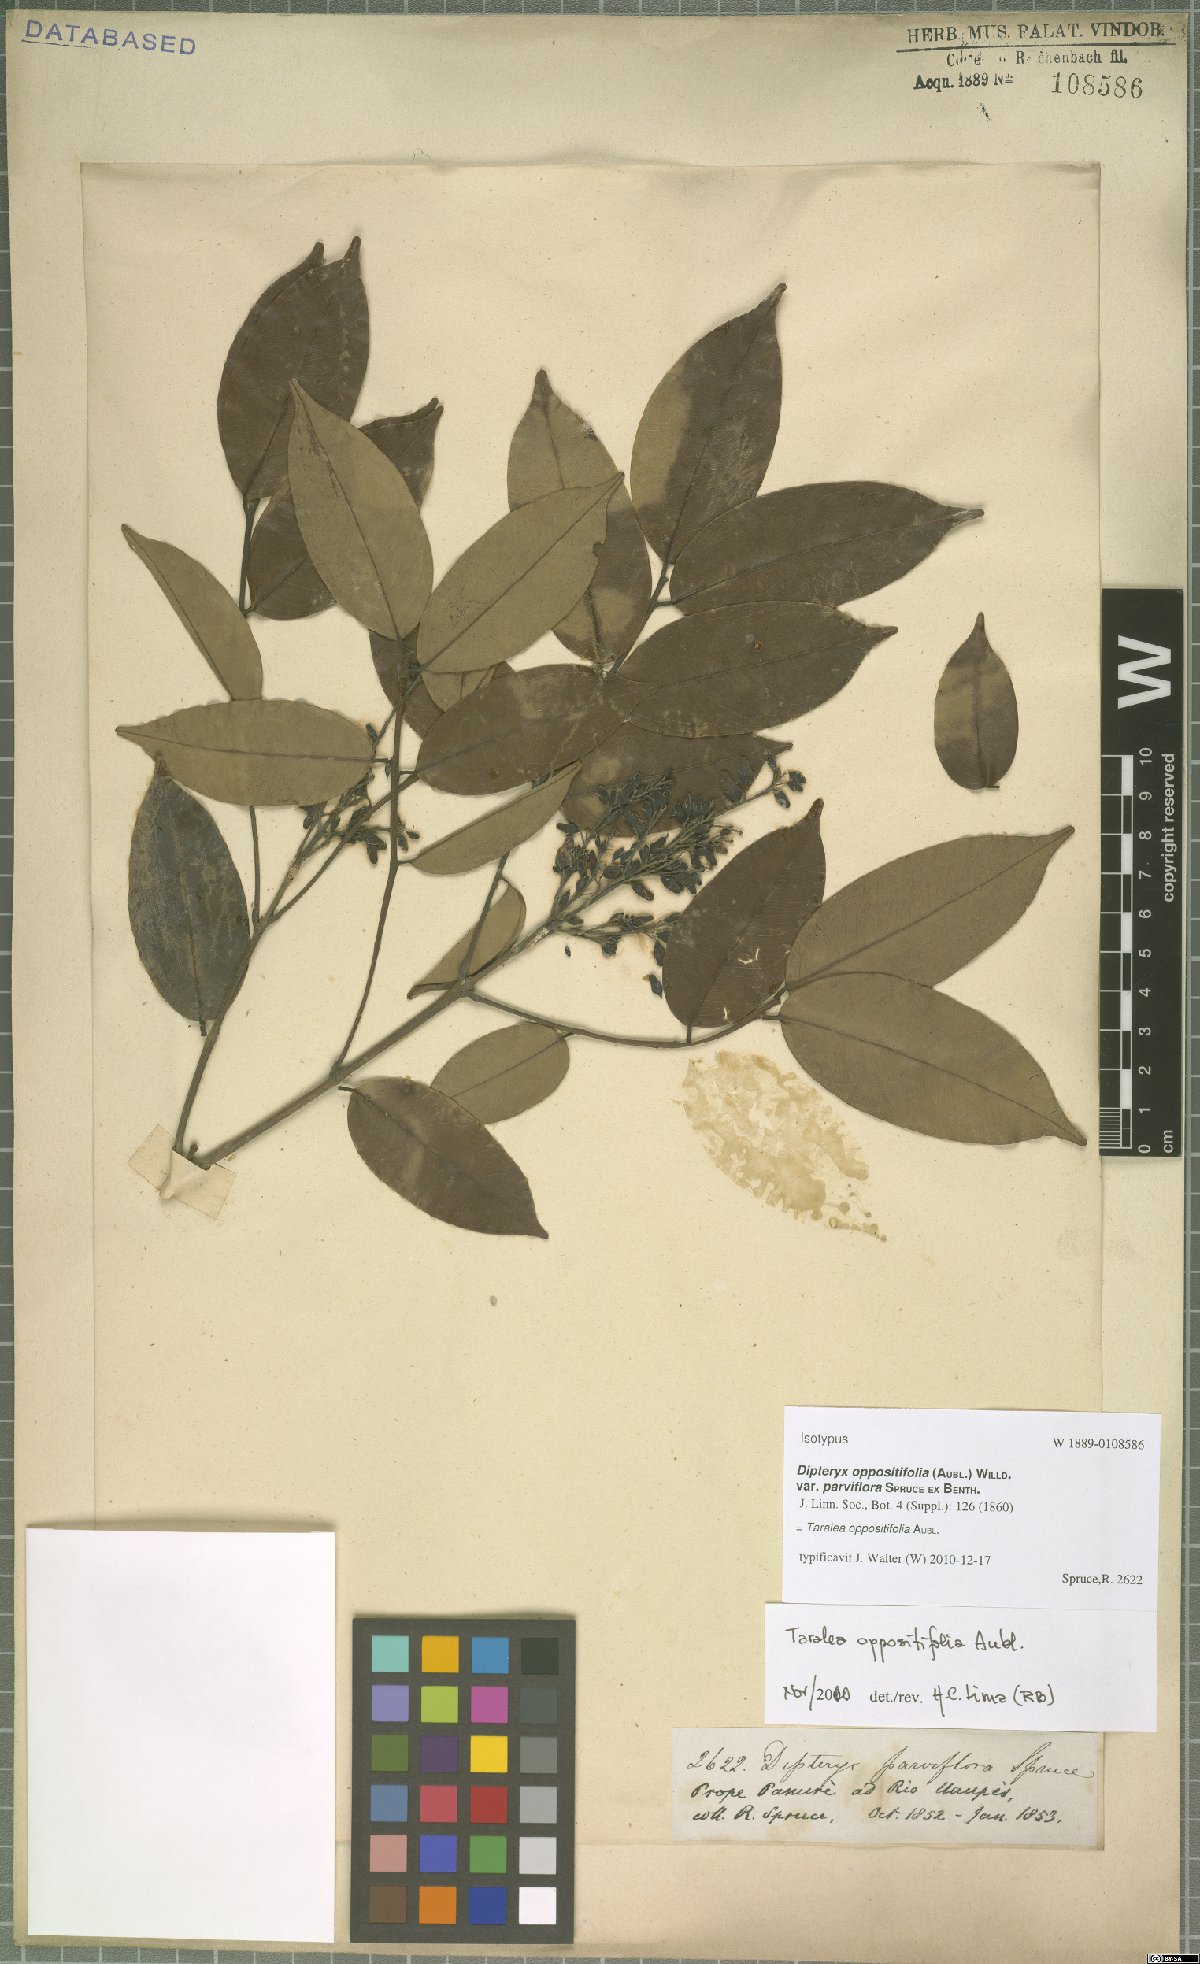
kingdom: Plantae
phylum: Tracheophyta
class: Magnoliopsida
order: Fabales
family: Fabaceae
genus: Taralea
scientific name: Taralea oppositifolia
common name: Tonka
